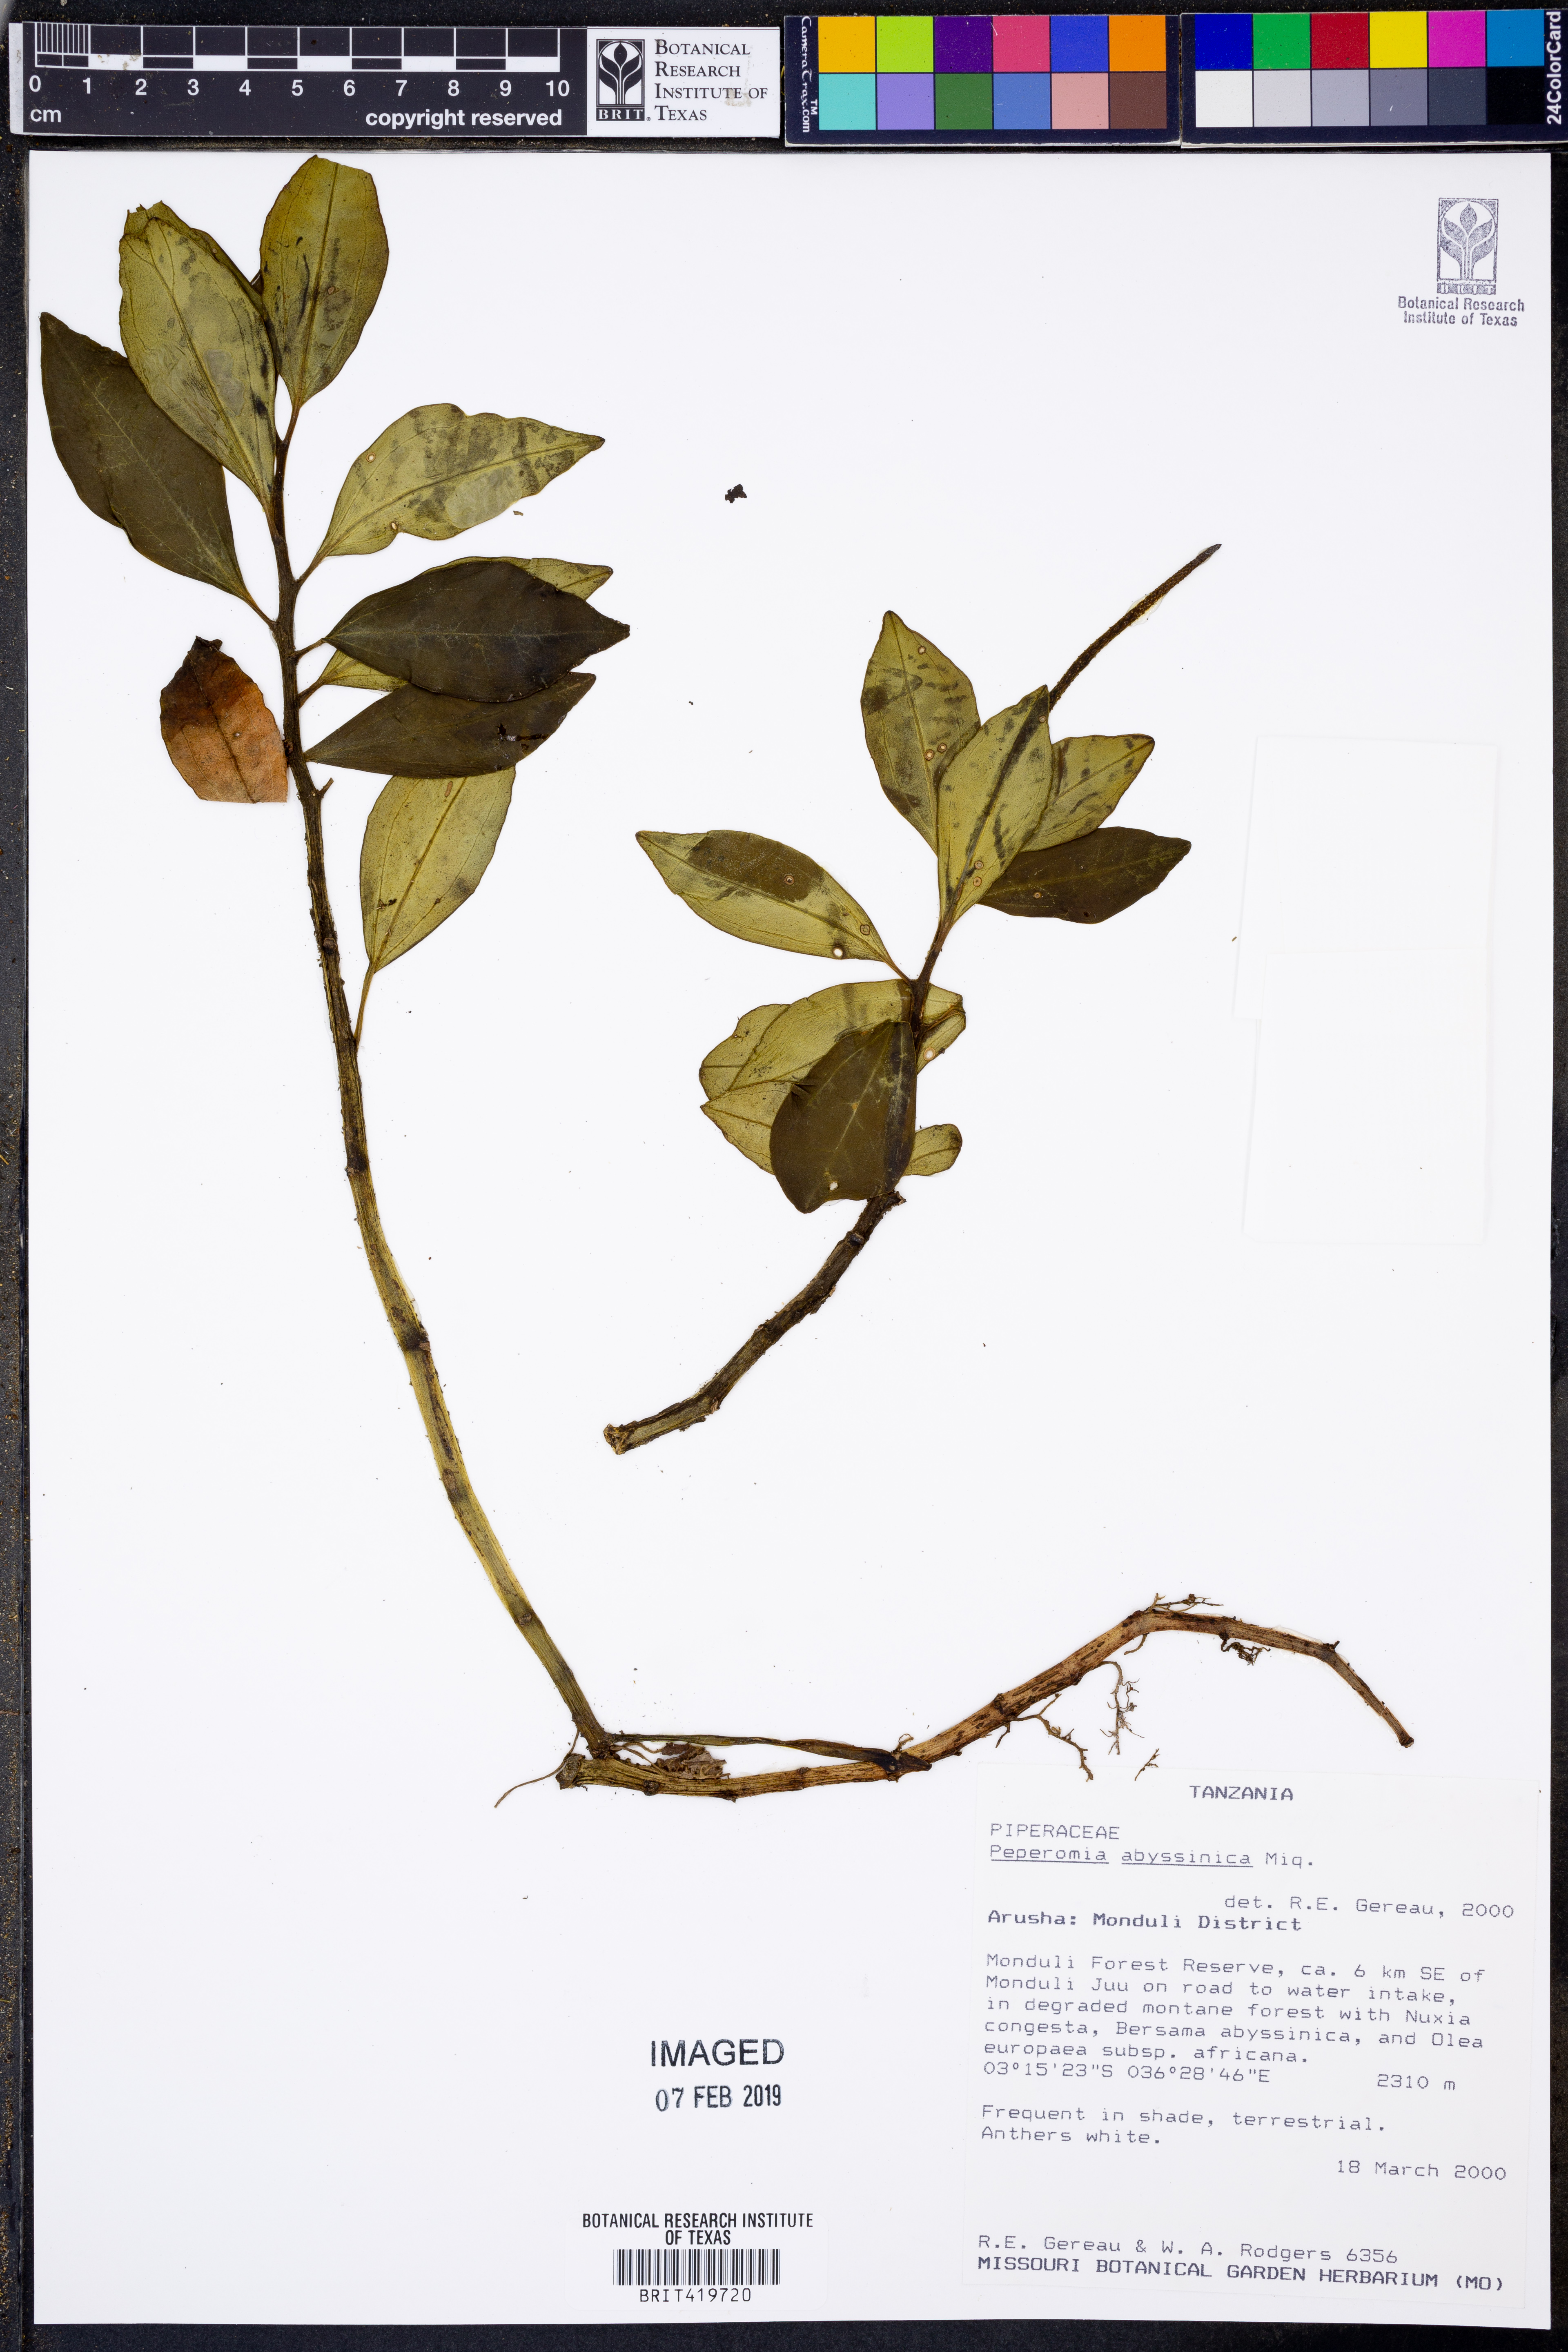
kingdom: Plantae
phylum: Tracheophyta
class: Magnoliopsida
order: Piperales
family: Piperaceae
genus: Peperomia
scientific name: Peperomia abyssinica
